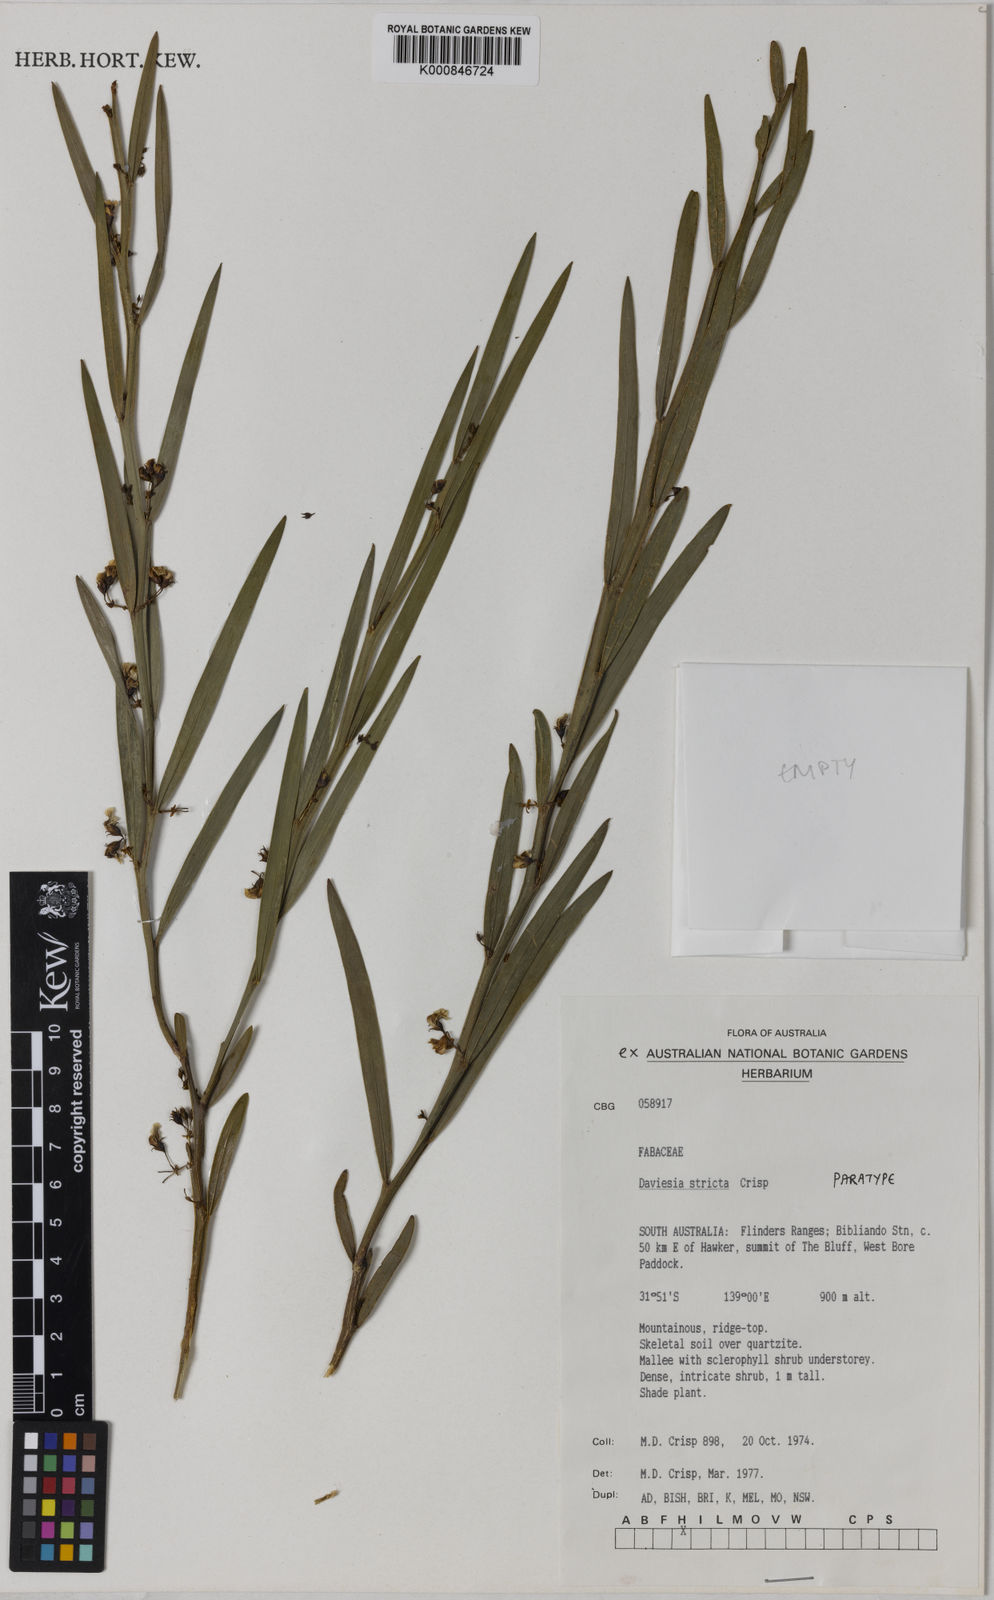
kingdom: Plantae
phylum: Tracheophyta
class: Magnoliopsida
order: Fabales
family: Fabaceae
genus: Daviesia
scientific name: Daviesia stricta
